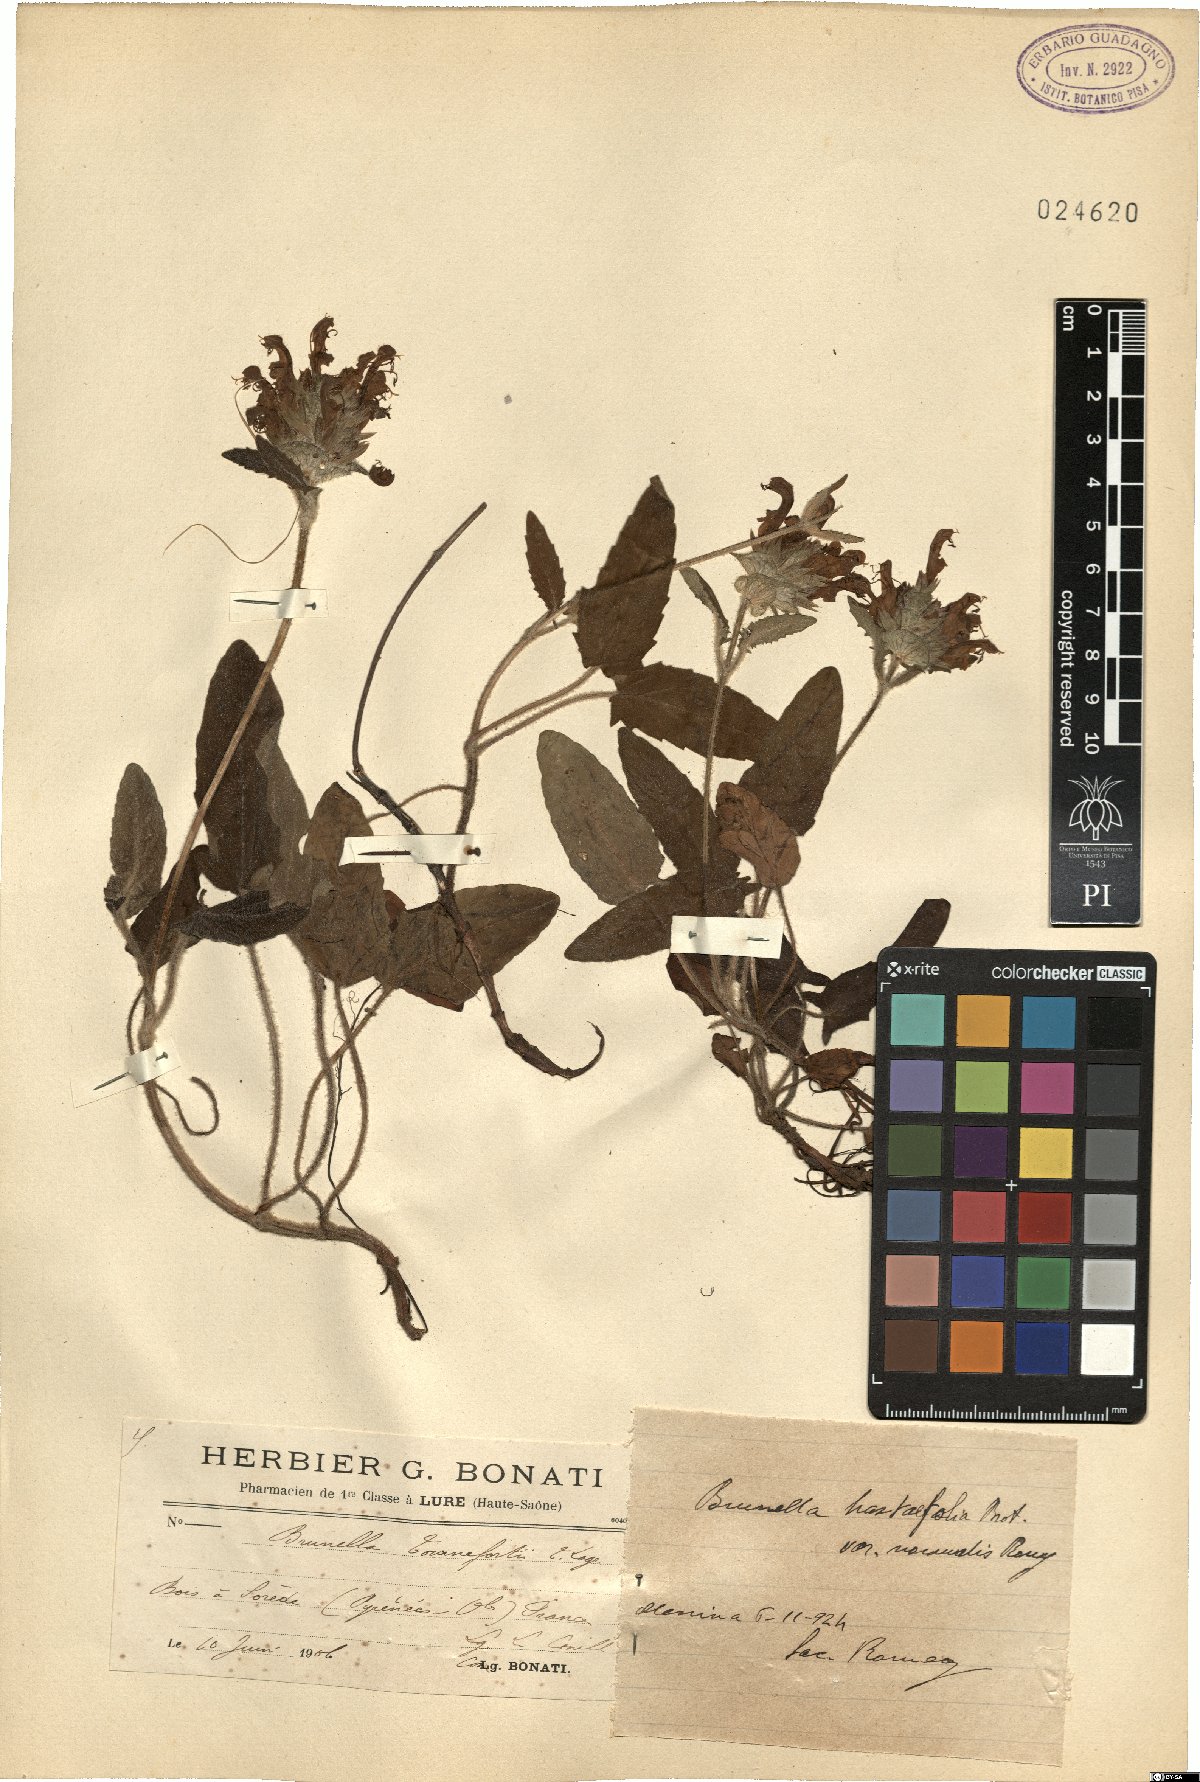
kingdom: Plantae
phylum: Tracheophyta
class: Magnoliopsida
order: Lamiales
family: Lamiaceae
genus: Prunella
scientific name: Prunella grandiflora
